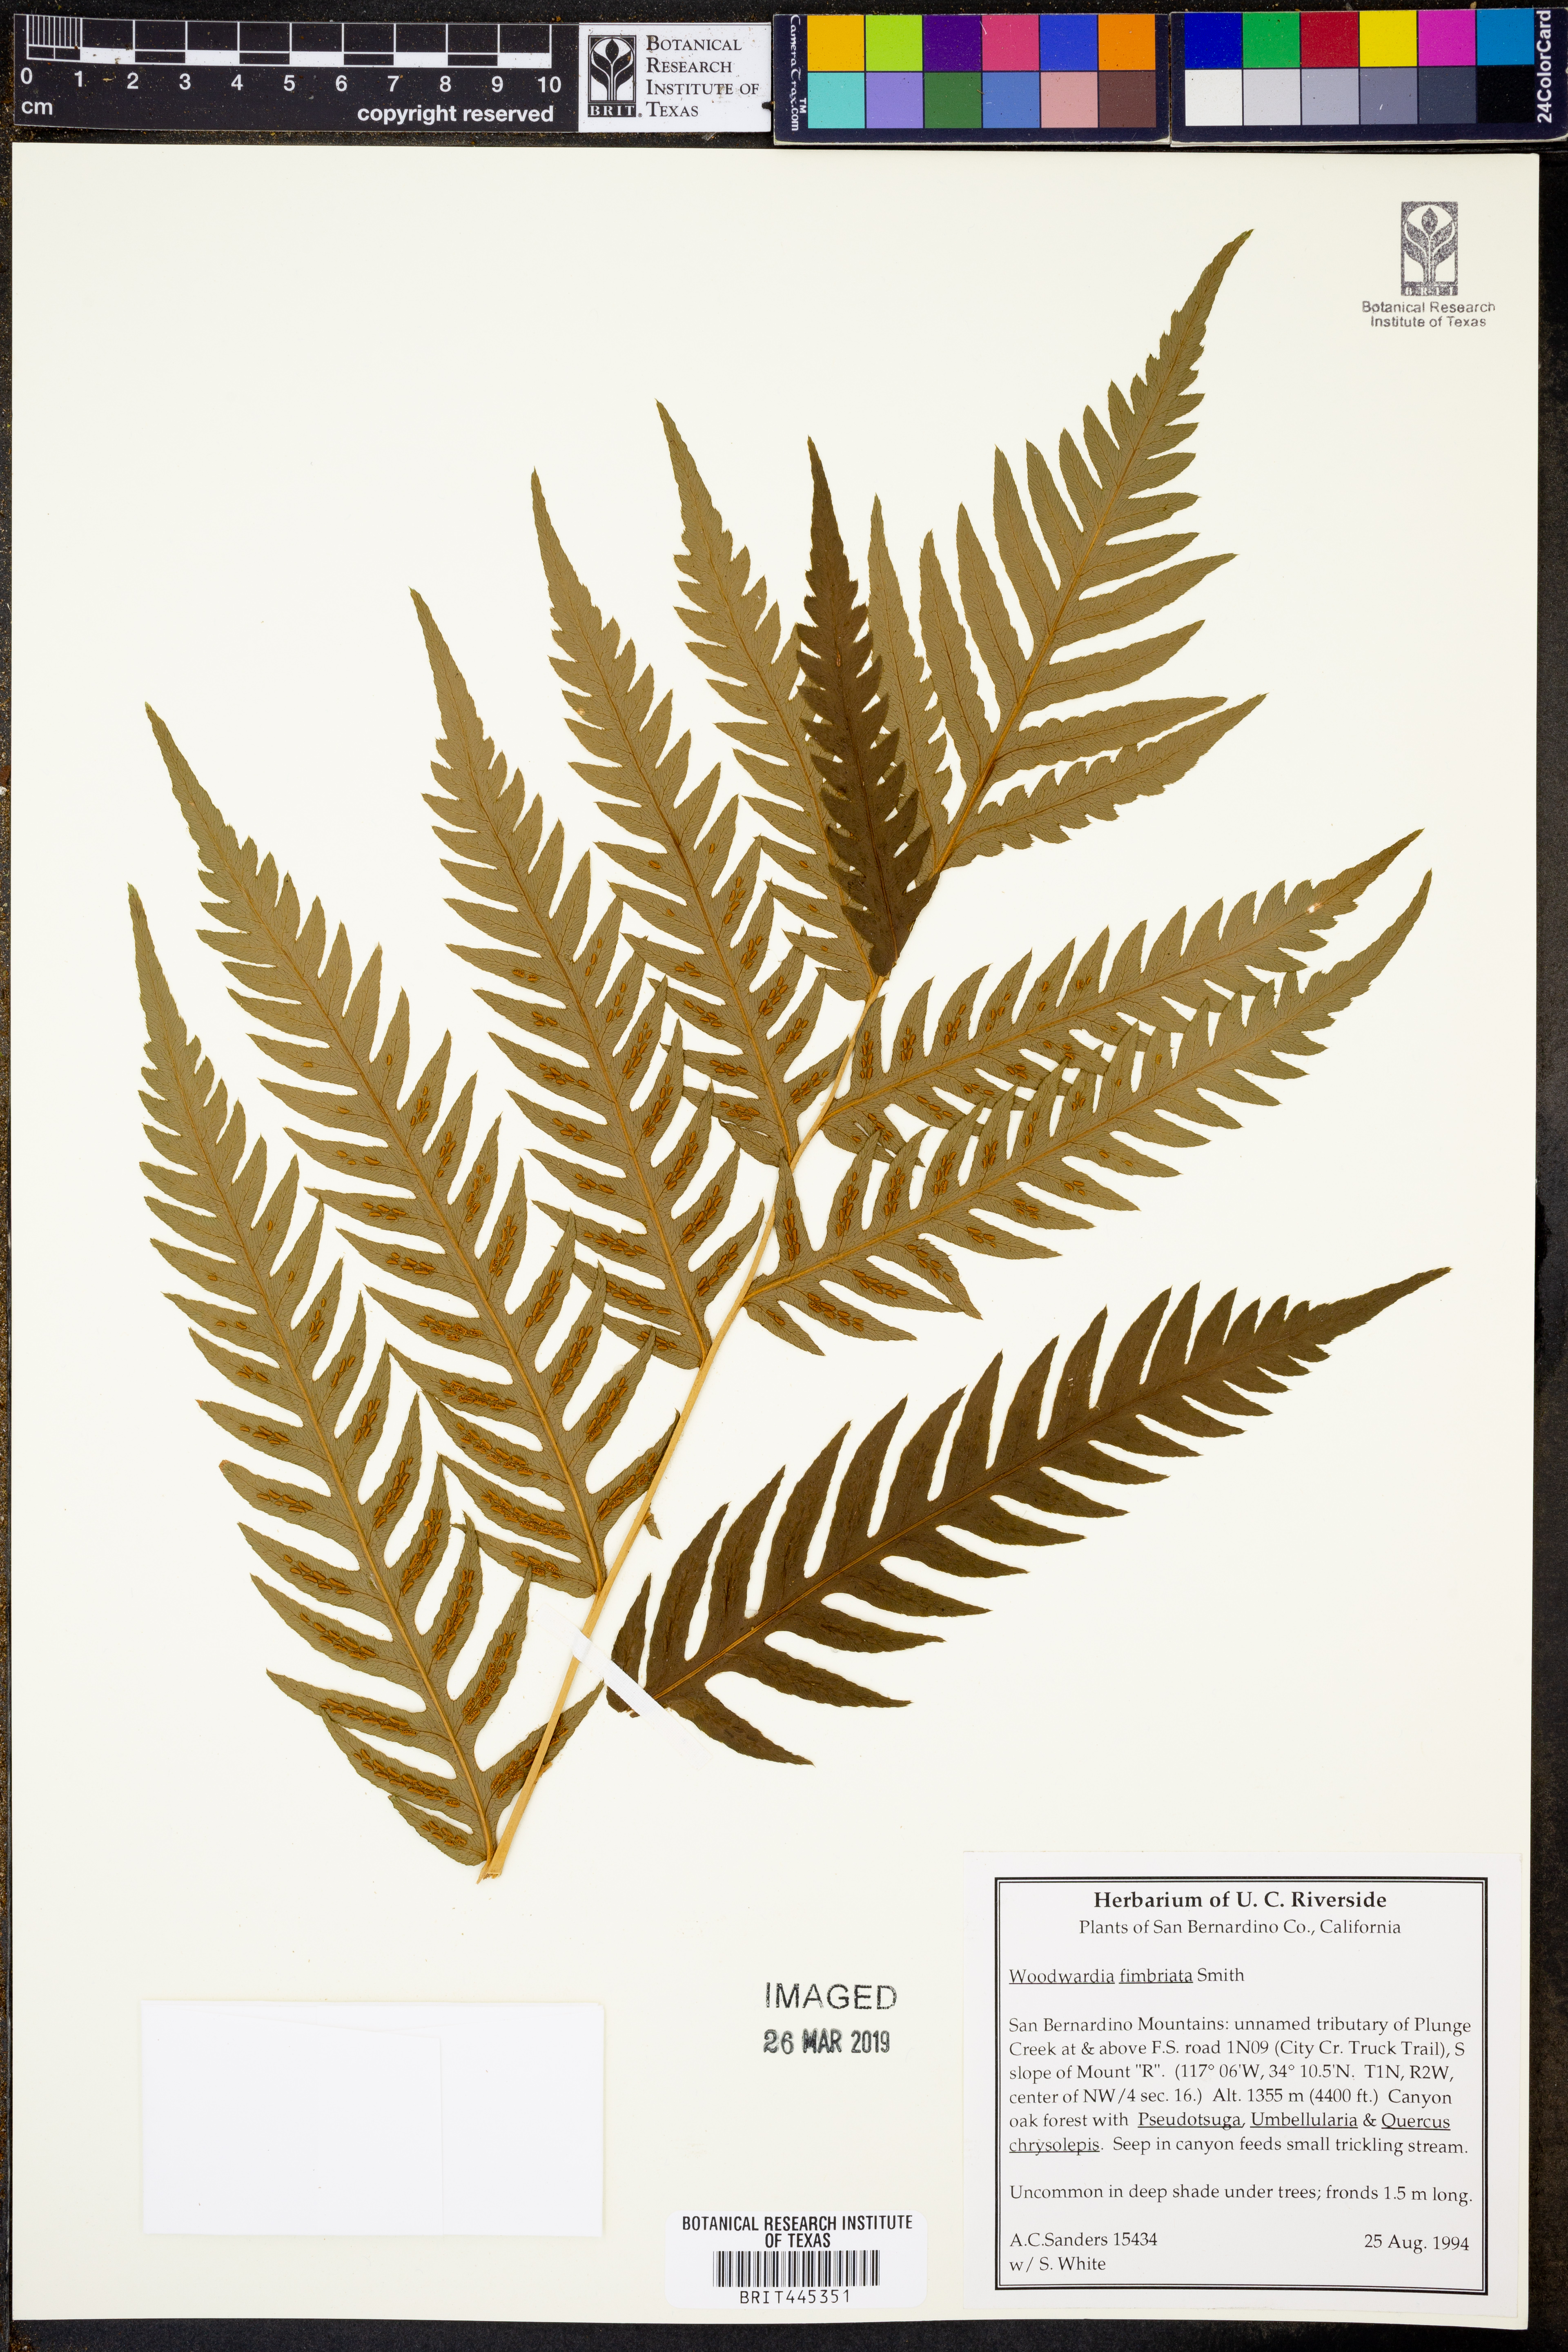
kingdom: Plantae
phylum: Tracheophyta
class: Polypodiopsida
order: Polypodiales
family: Blechnaceae
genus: Woodwardia
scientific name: Woodwardia fimbriata
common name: Giant chain fern
